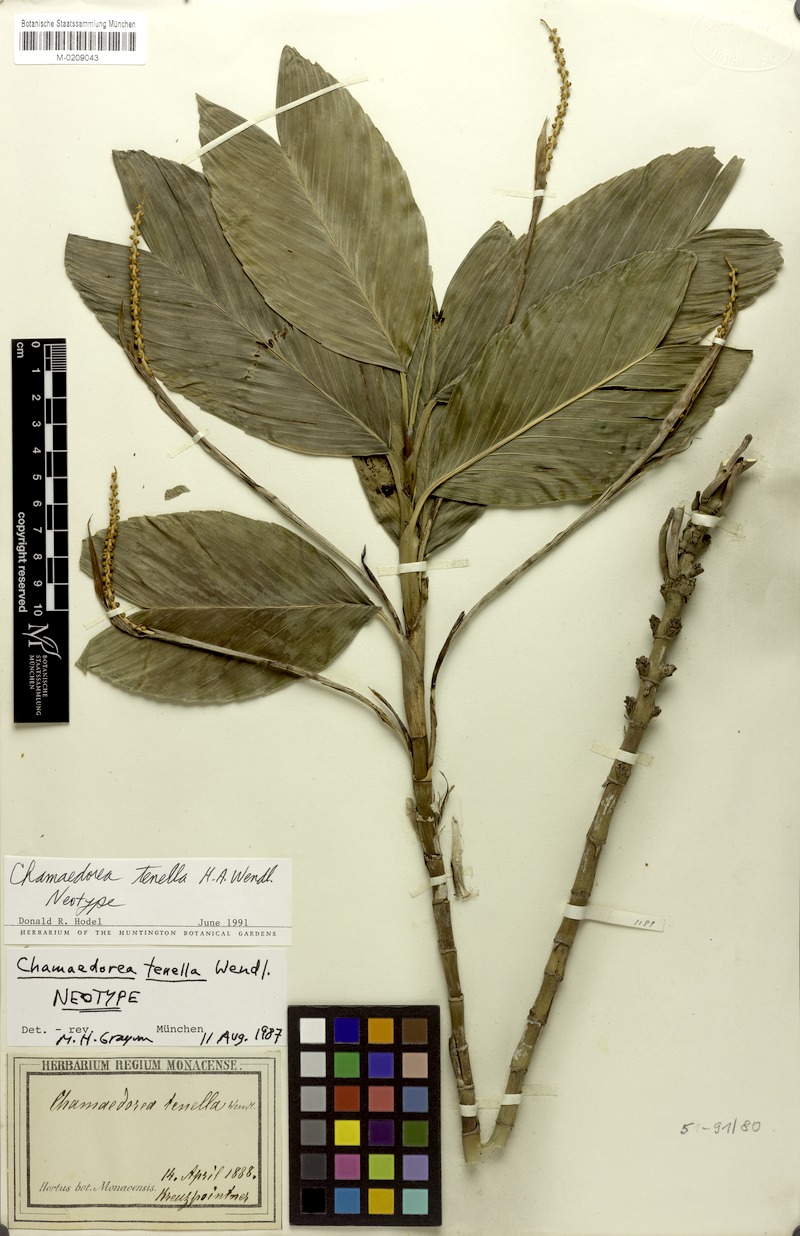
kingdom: Plantae
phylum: Tracheophyta
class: Liliopsida
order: Arecales
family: Arecaceae
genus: Chamaedorea
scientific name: Chamaedorea geonomiformis
